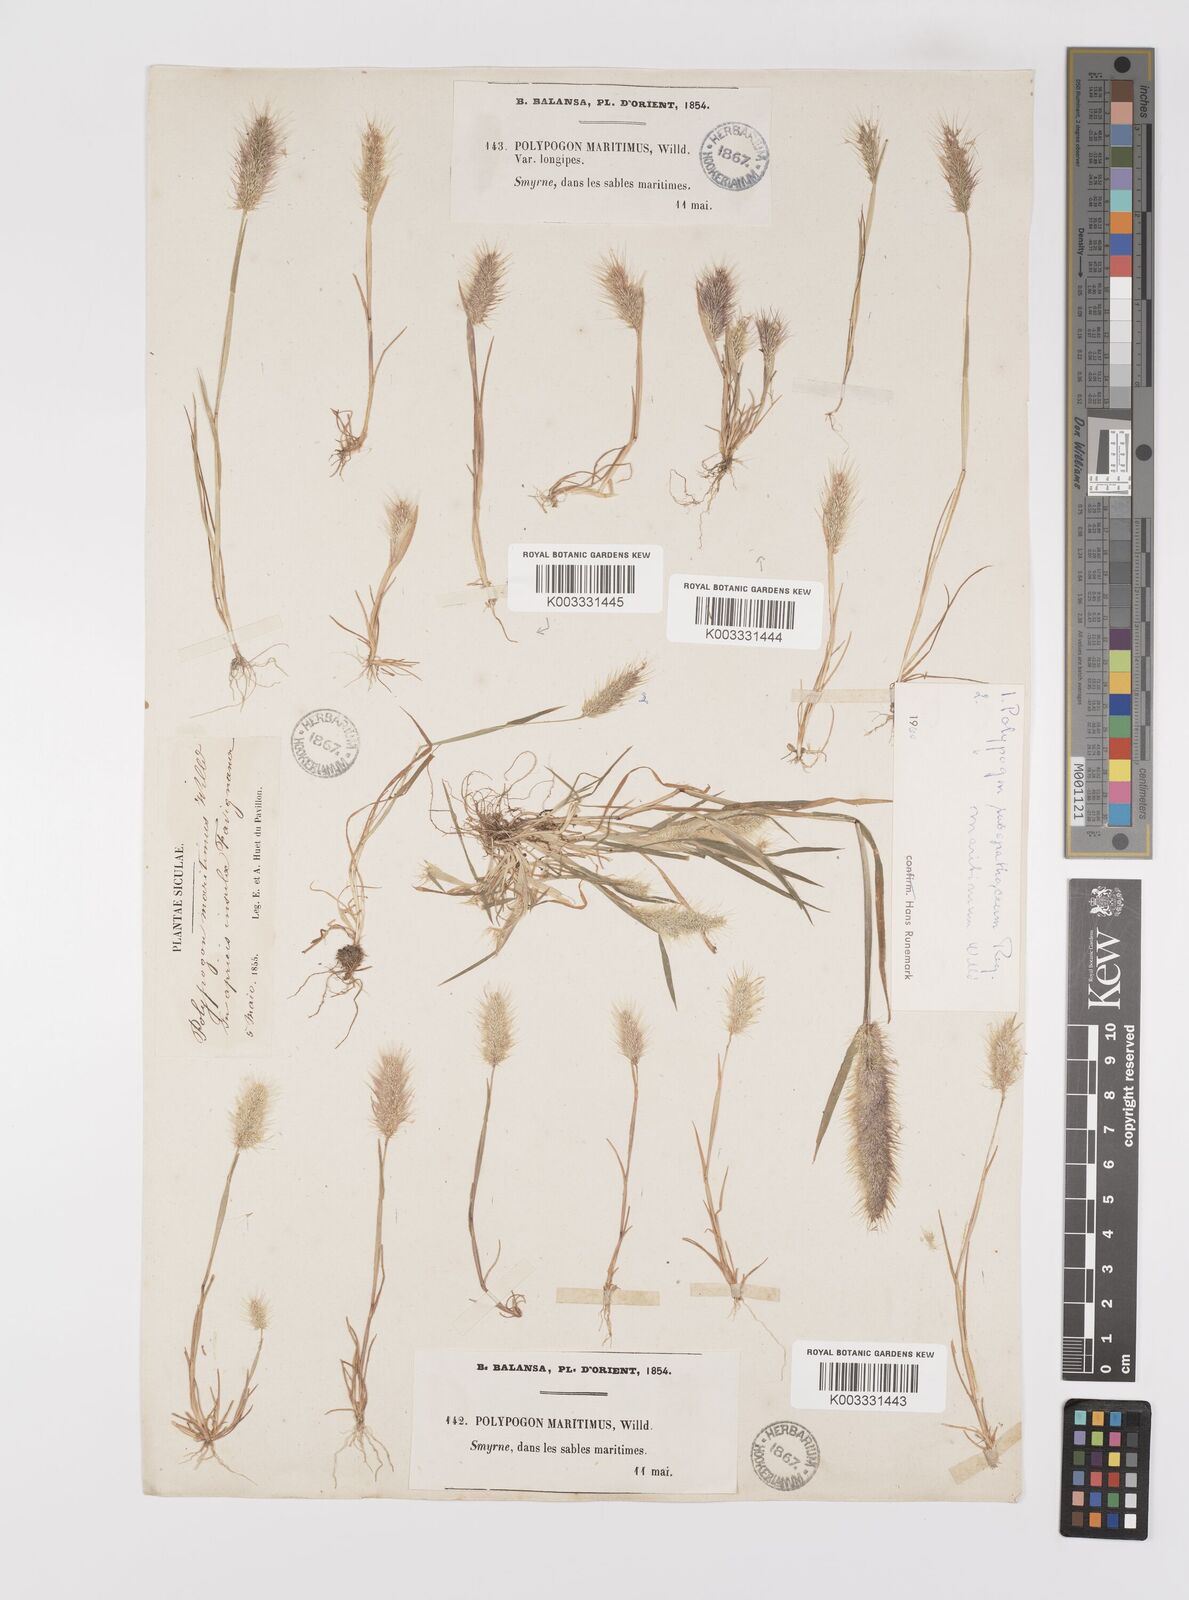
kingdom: Plantae
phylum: Tracheophyta
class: Liliopsida
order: Poales
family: Poaceae
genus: Polypogon
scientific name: Polypogon maritimus
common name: Mediterranean rabbitsfoot grass
